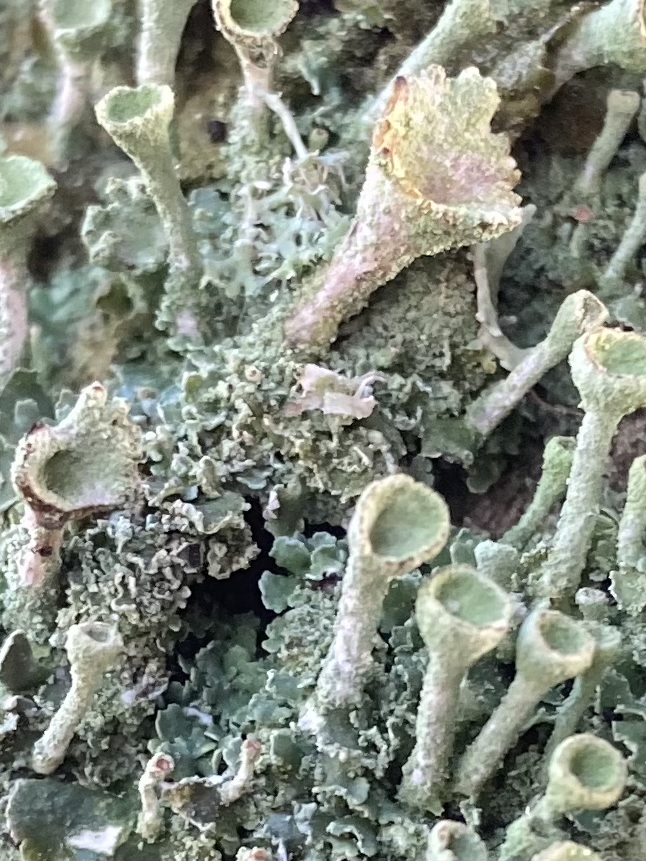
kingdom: Fungi
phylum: Ascomycota
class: Lecanoromycetes
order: Lecanorales
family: Cladoniaceae
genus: Cladonia
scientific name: Cladonia
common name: brungrøn bægerlav
